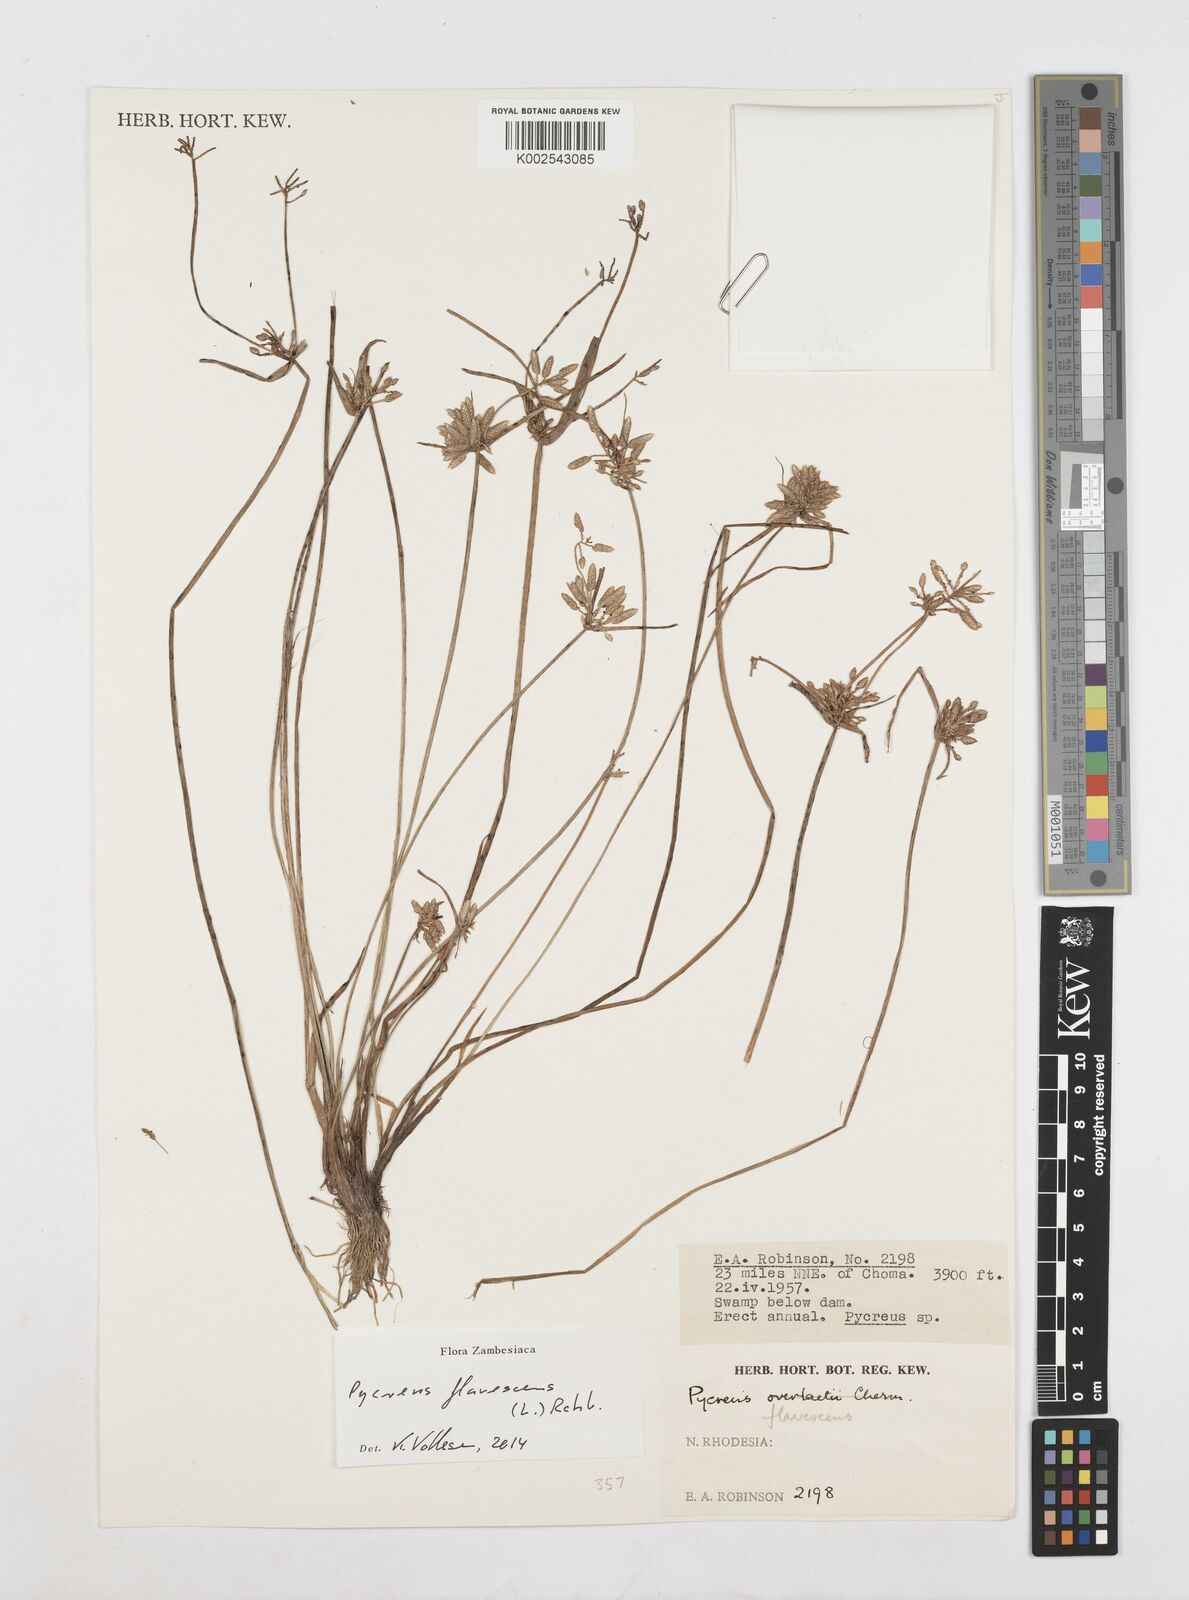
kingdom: Plantae
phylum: Tracheophyta
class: Liliopsida
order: Poales
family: Cyperaceae
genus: Cyperus
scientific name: Cyperus flavescens
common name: Yellow galingale
